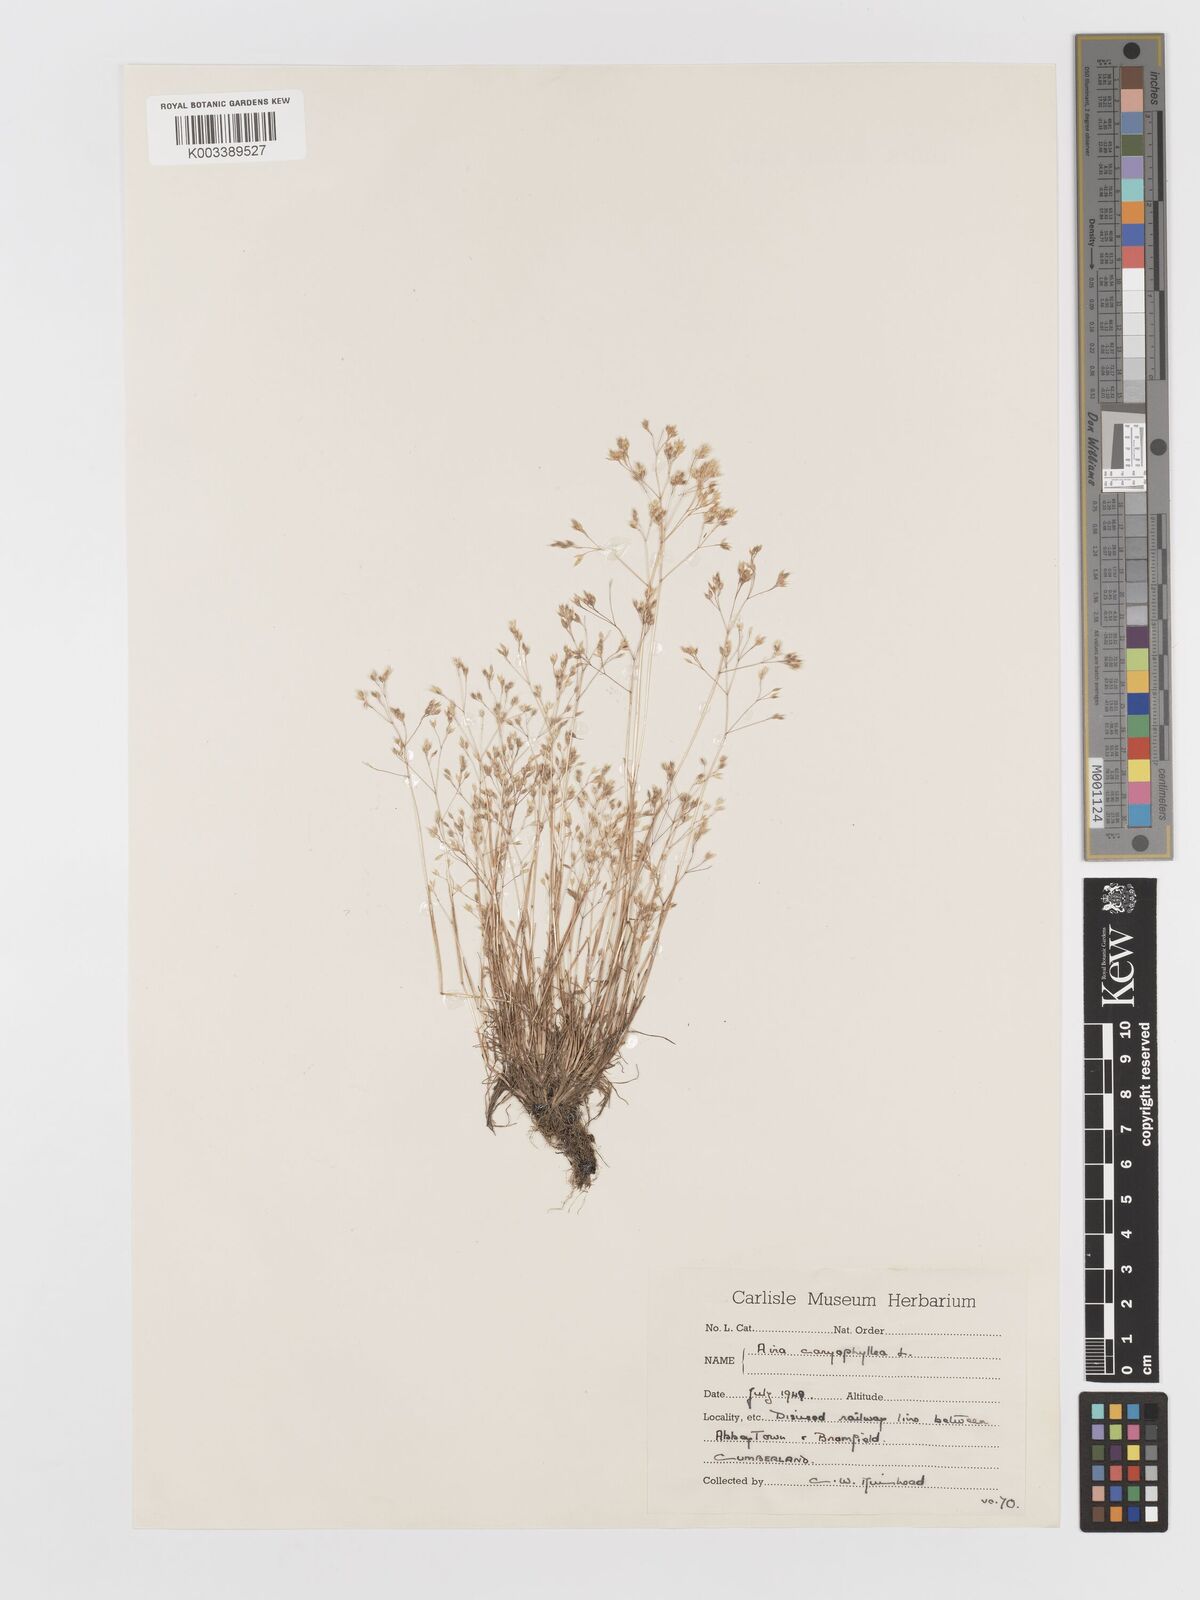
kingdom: Plantae
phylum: Tracheophyta
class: Liliopsida
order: Poales
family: Poaceae
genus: Aira
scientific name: Aira caryophyllea
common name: Silver hairgrass
